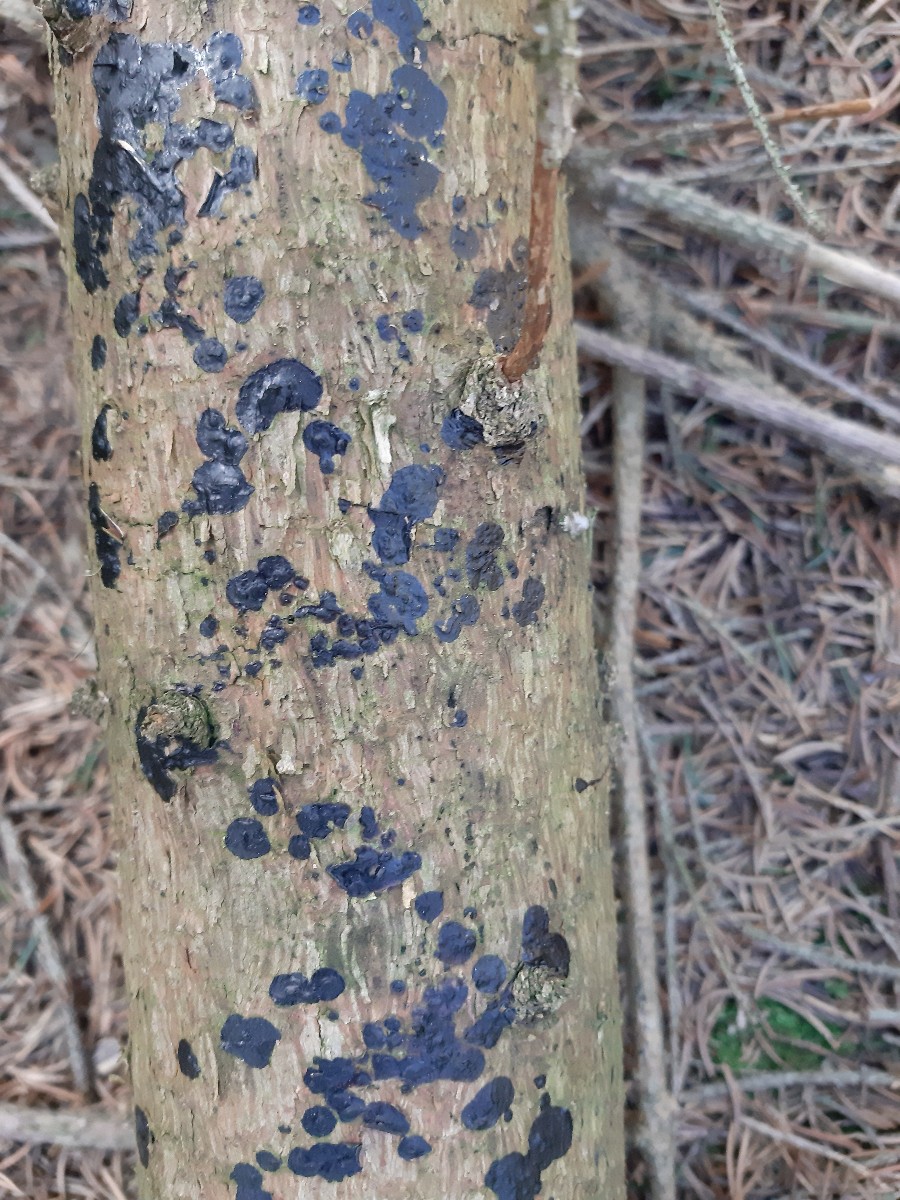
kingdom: Fungi
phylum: Basidiomycota
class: Agaricomycetes
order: Auriculariales
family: Auriculariaceae
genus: Exidia
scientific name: Exidia pithya
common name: gran-bævretop
